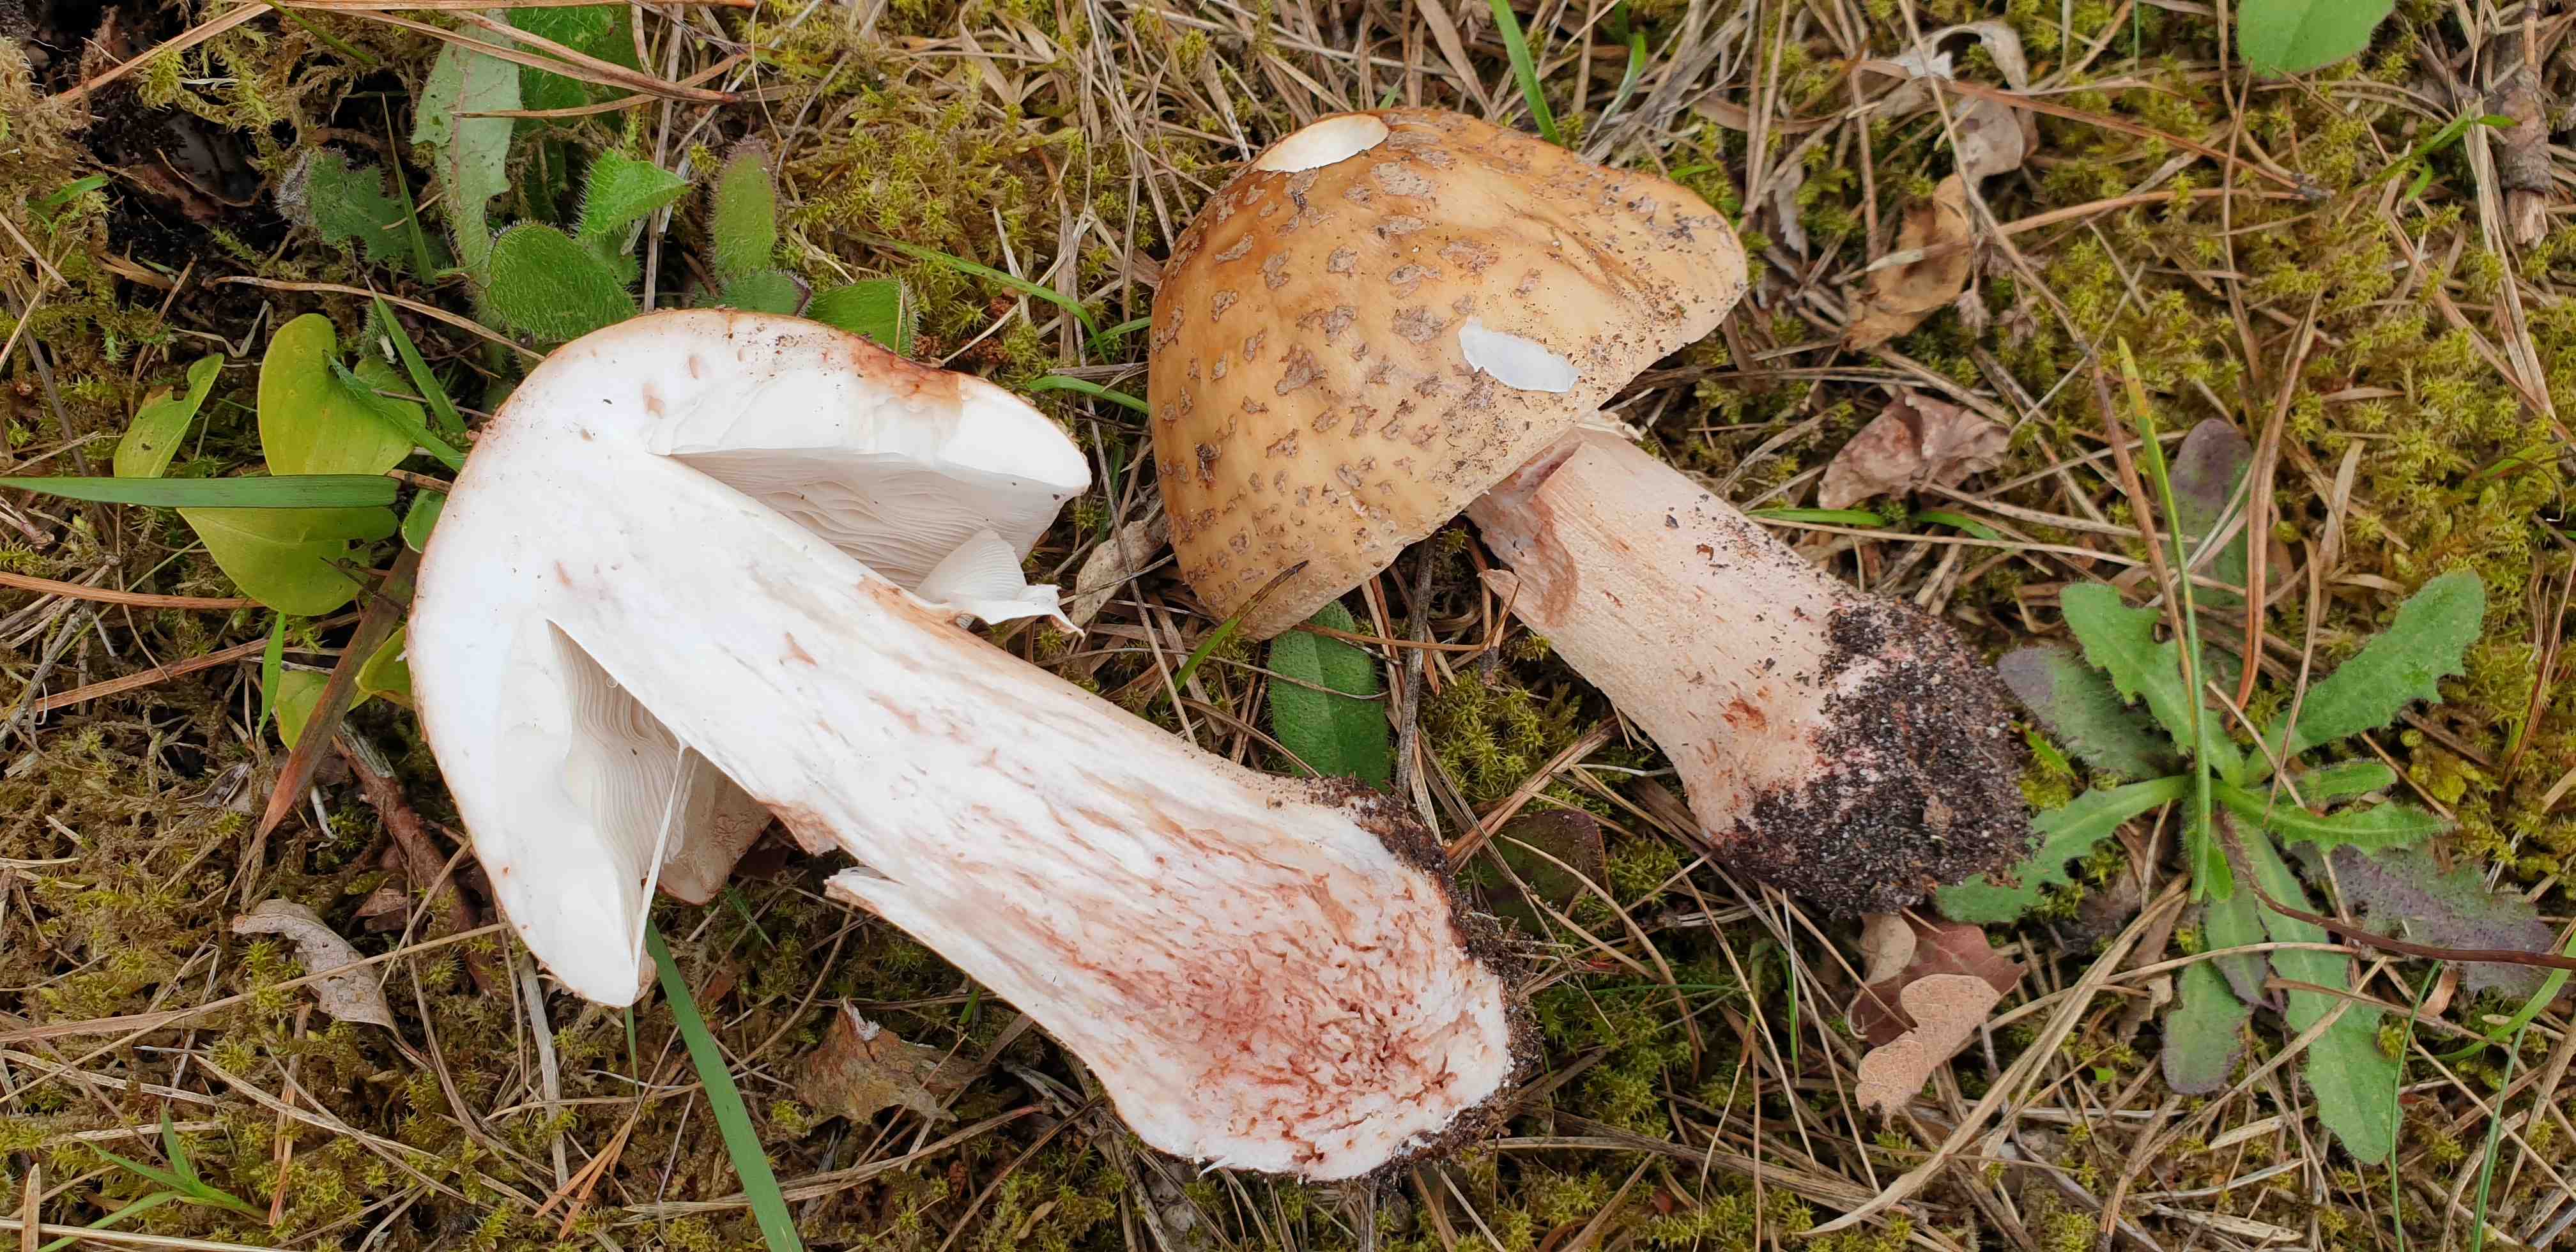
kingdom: Fungi
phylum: Basidiomycota
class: Agaricomycetes
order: Agaricales
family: Amanitaceae
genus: Amanita
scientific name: Amanita rubescens
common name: rødmende fluesvamp
